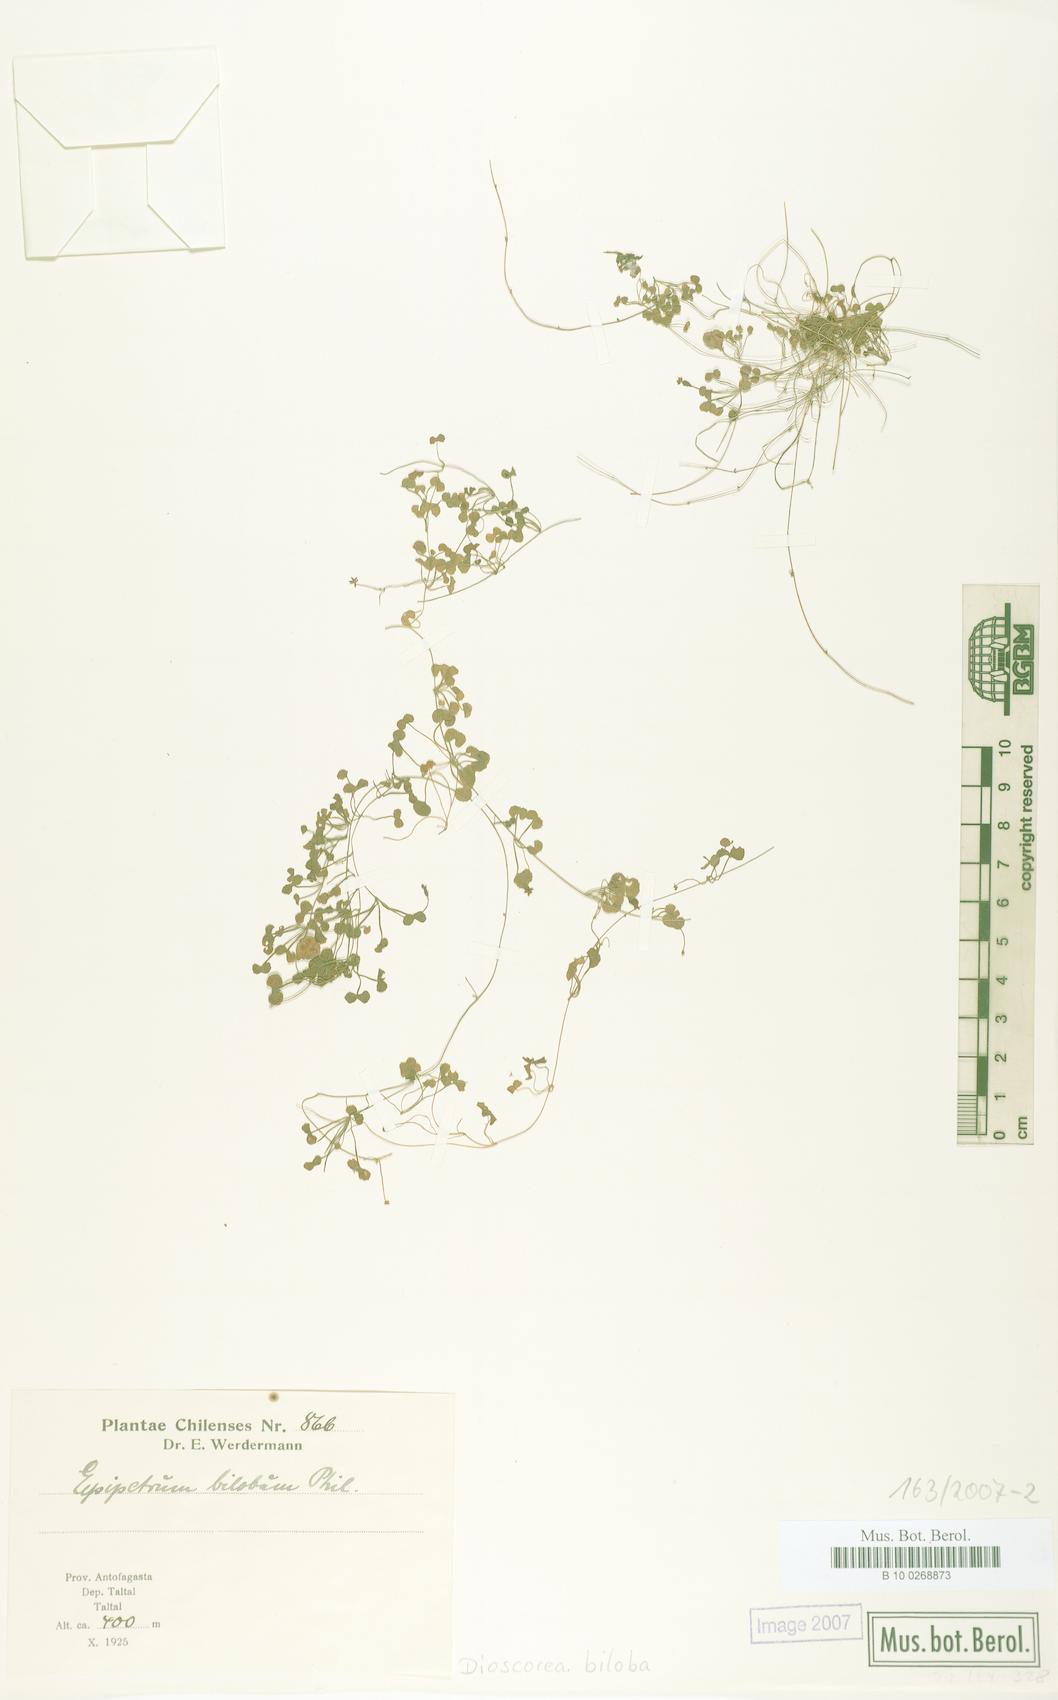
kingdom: Plantae
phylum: Tracheophyta
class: Liliopsida
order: Dioscoreales
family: Dioscoreaceae
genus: Dioscorea
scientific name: Dioscorea biloba
